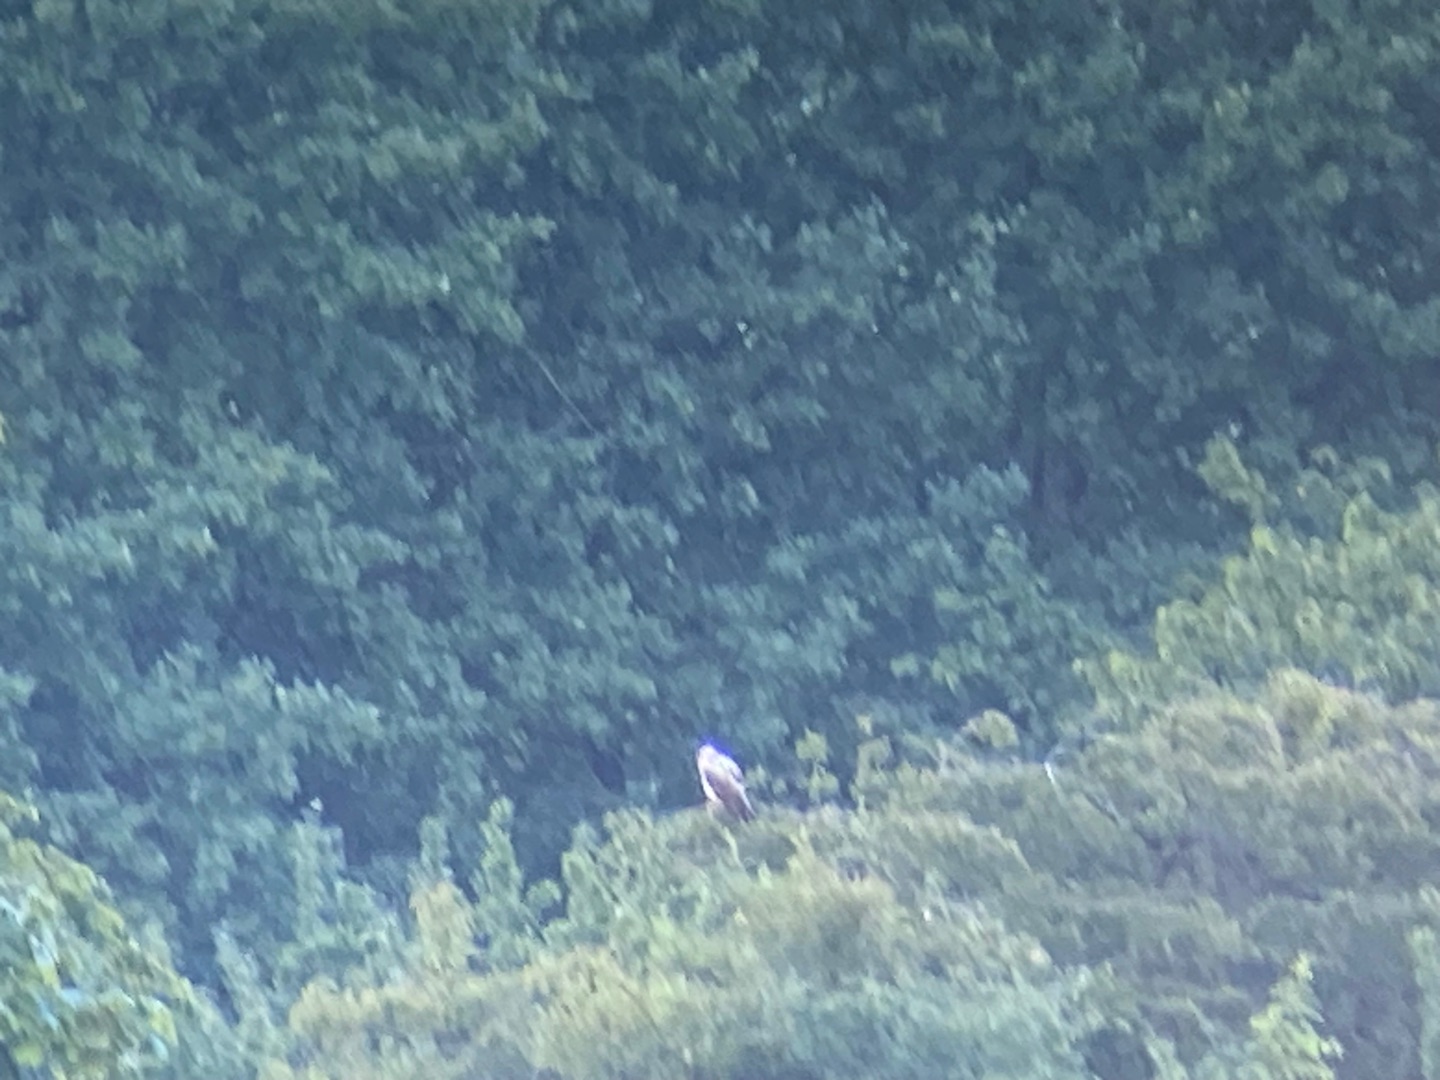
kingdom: Animalia
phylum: Chordata
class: Aves
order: Accipitriformes
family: Accipitridae
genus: Buteo
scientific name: Buteo buteo
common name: Musvåge
